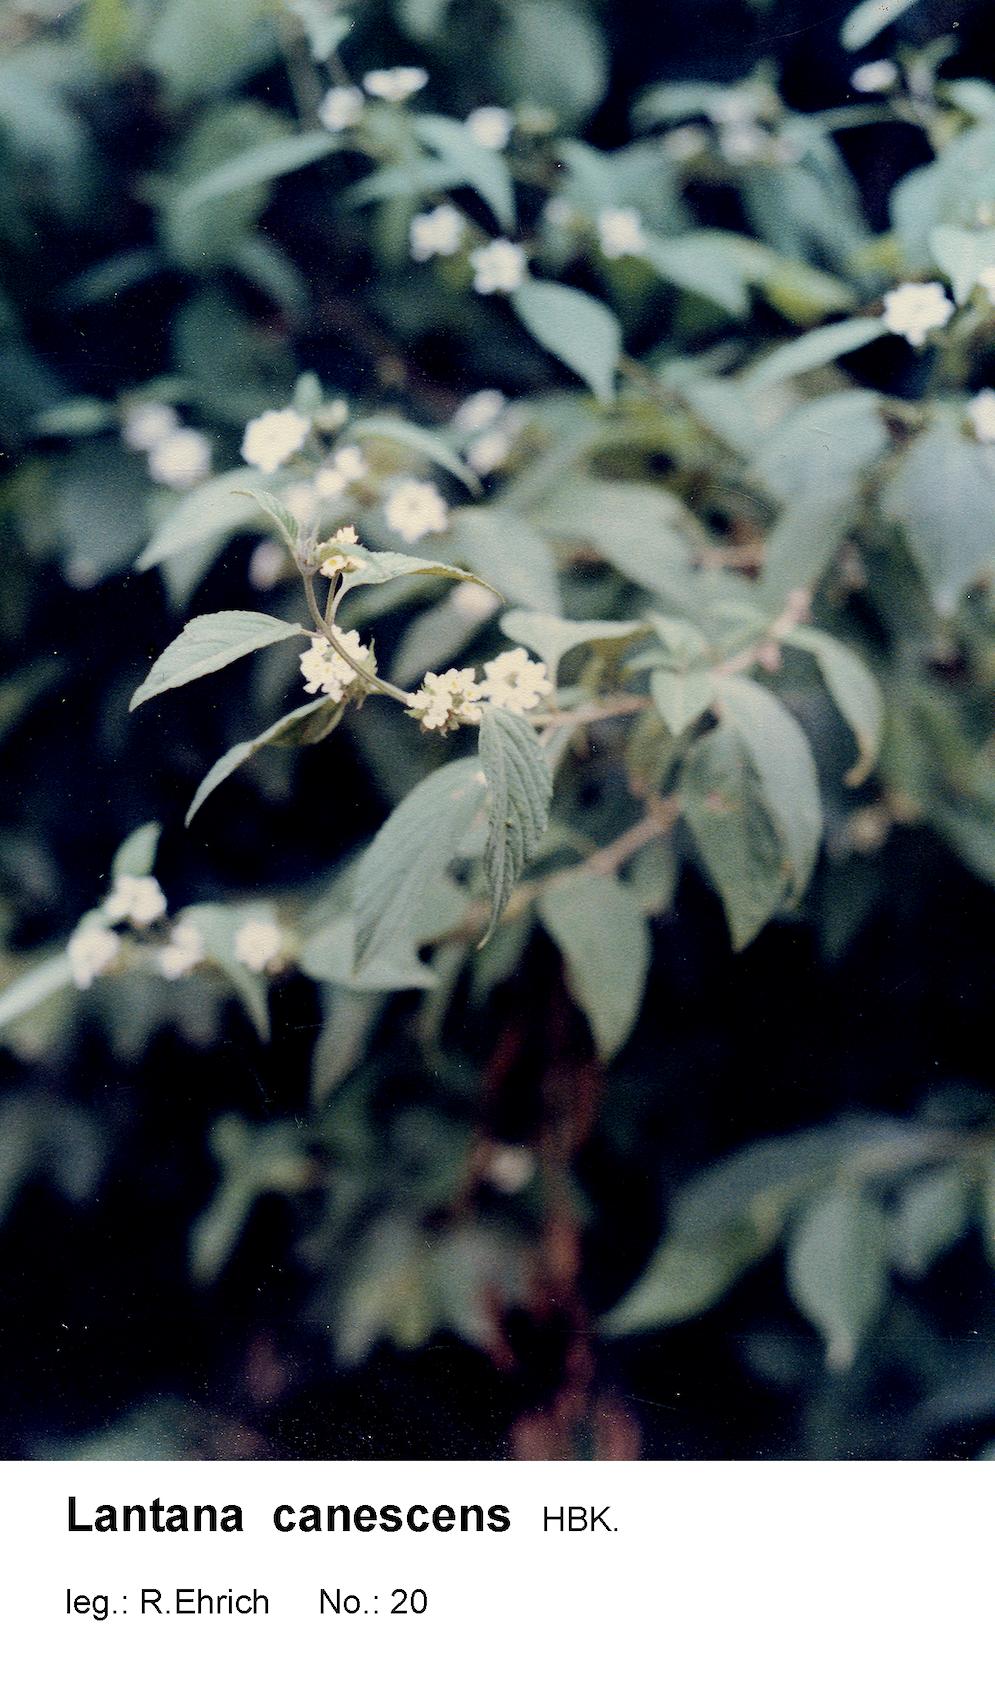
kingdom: Plantae
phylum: Tracheophyta
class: Magnoliopsida
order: Lamiales
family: Verbenaceae
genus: Lantana
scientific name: Lantana canescens
